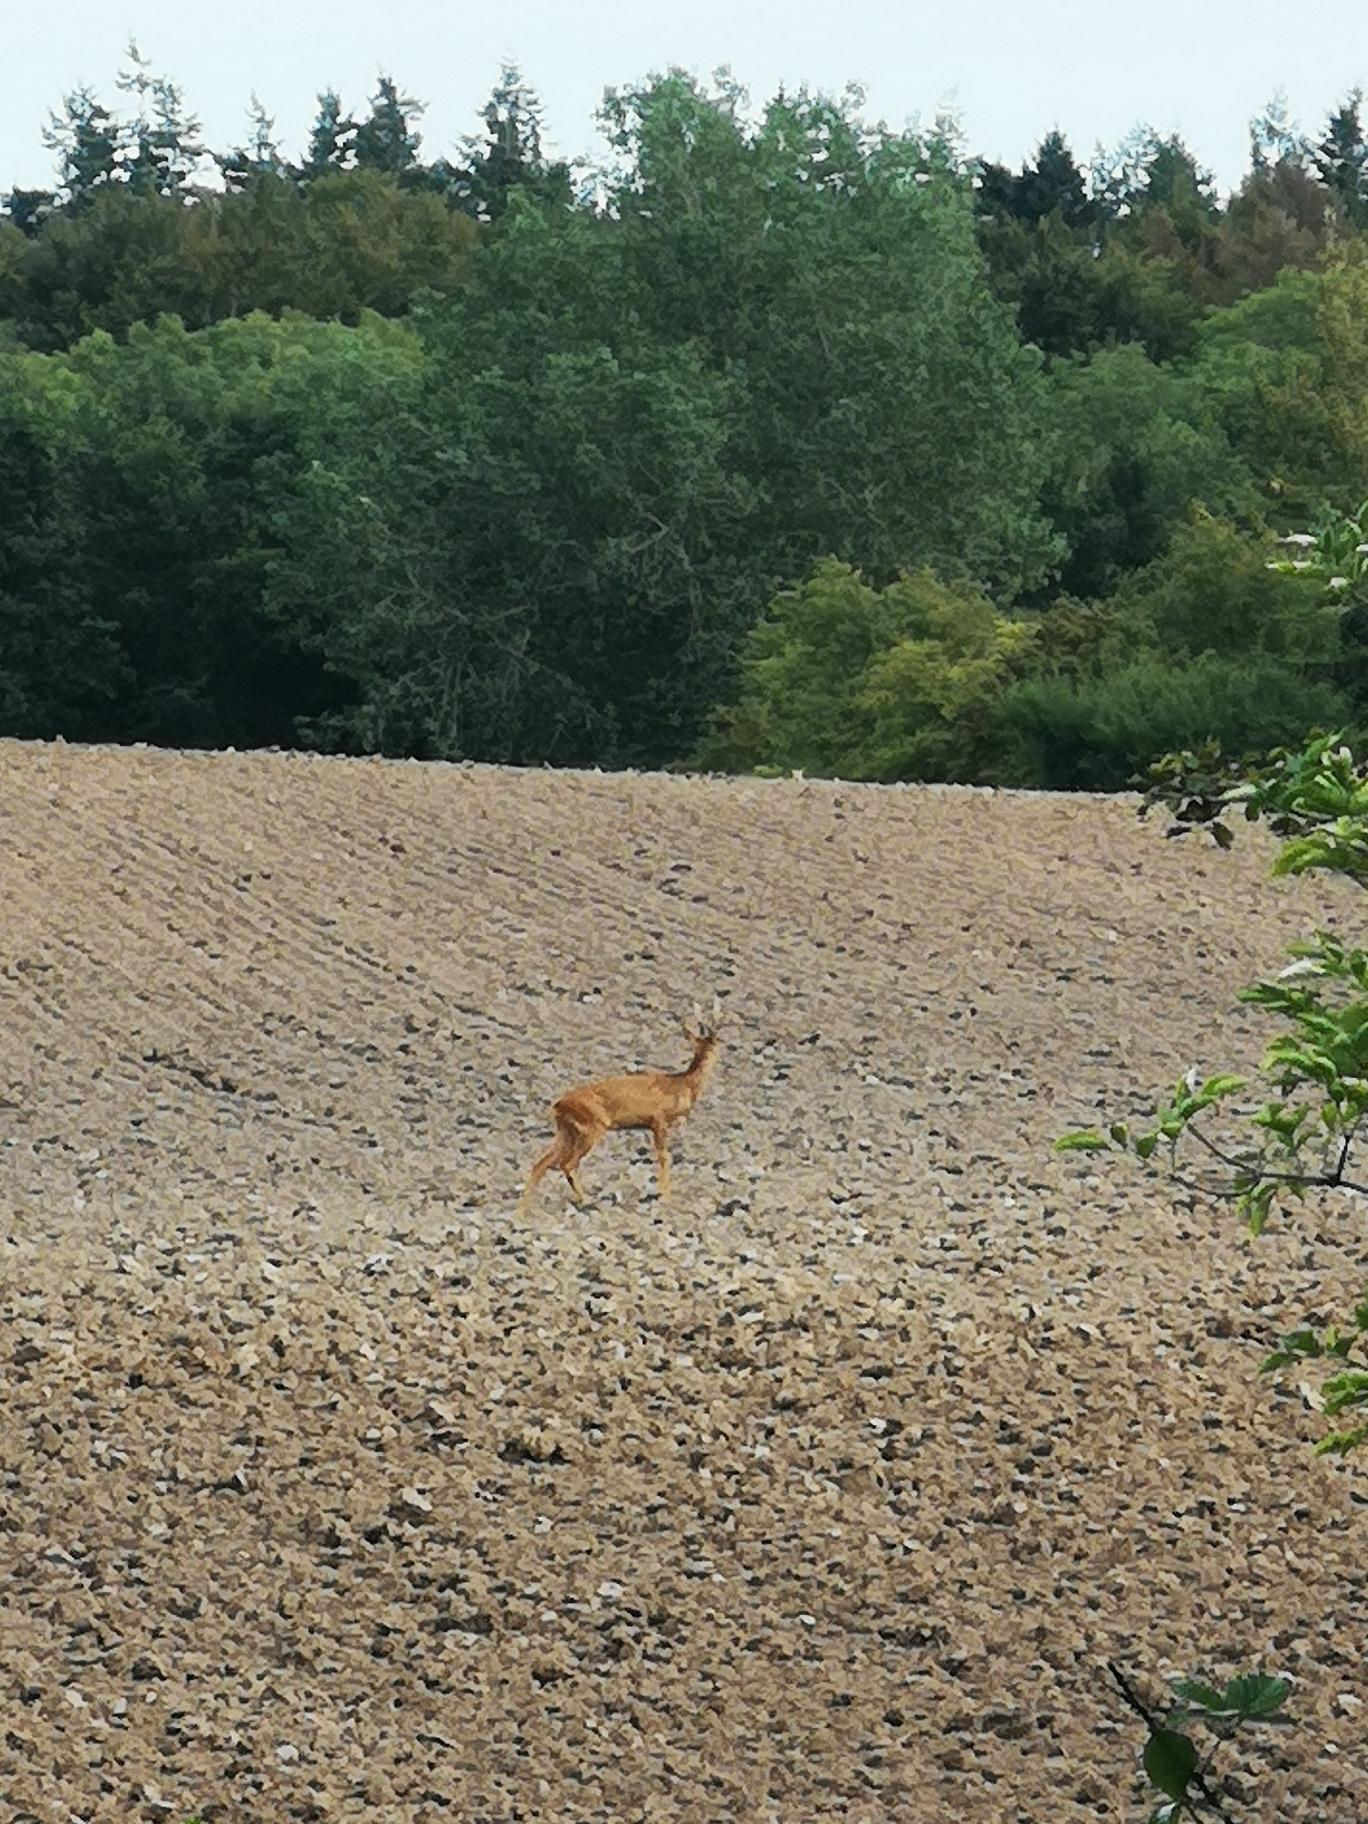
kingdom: Animalia
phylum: Chordata
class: Mammalia
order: Artiodactyla
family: Cervidae
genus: Capreolus
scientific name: Capreolus capreolus
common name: Rådyr
